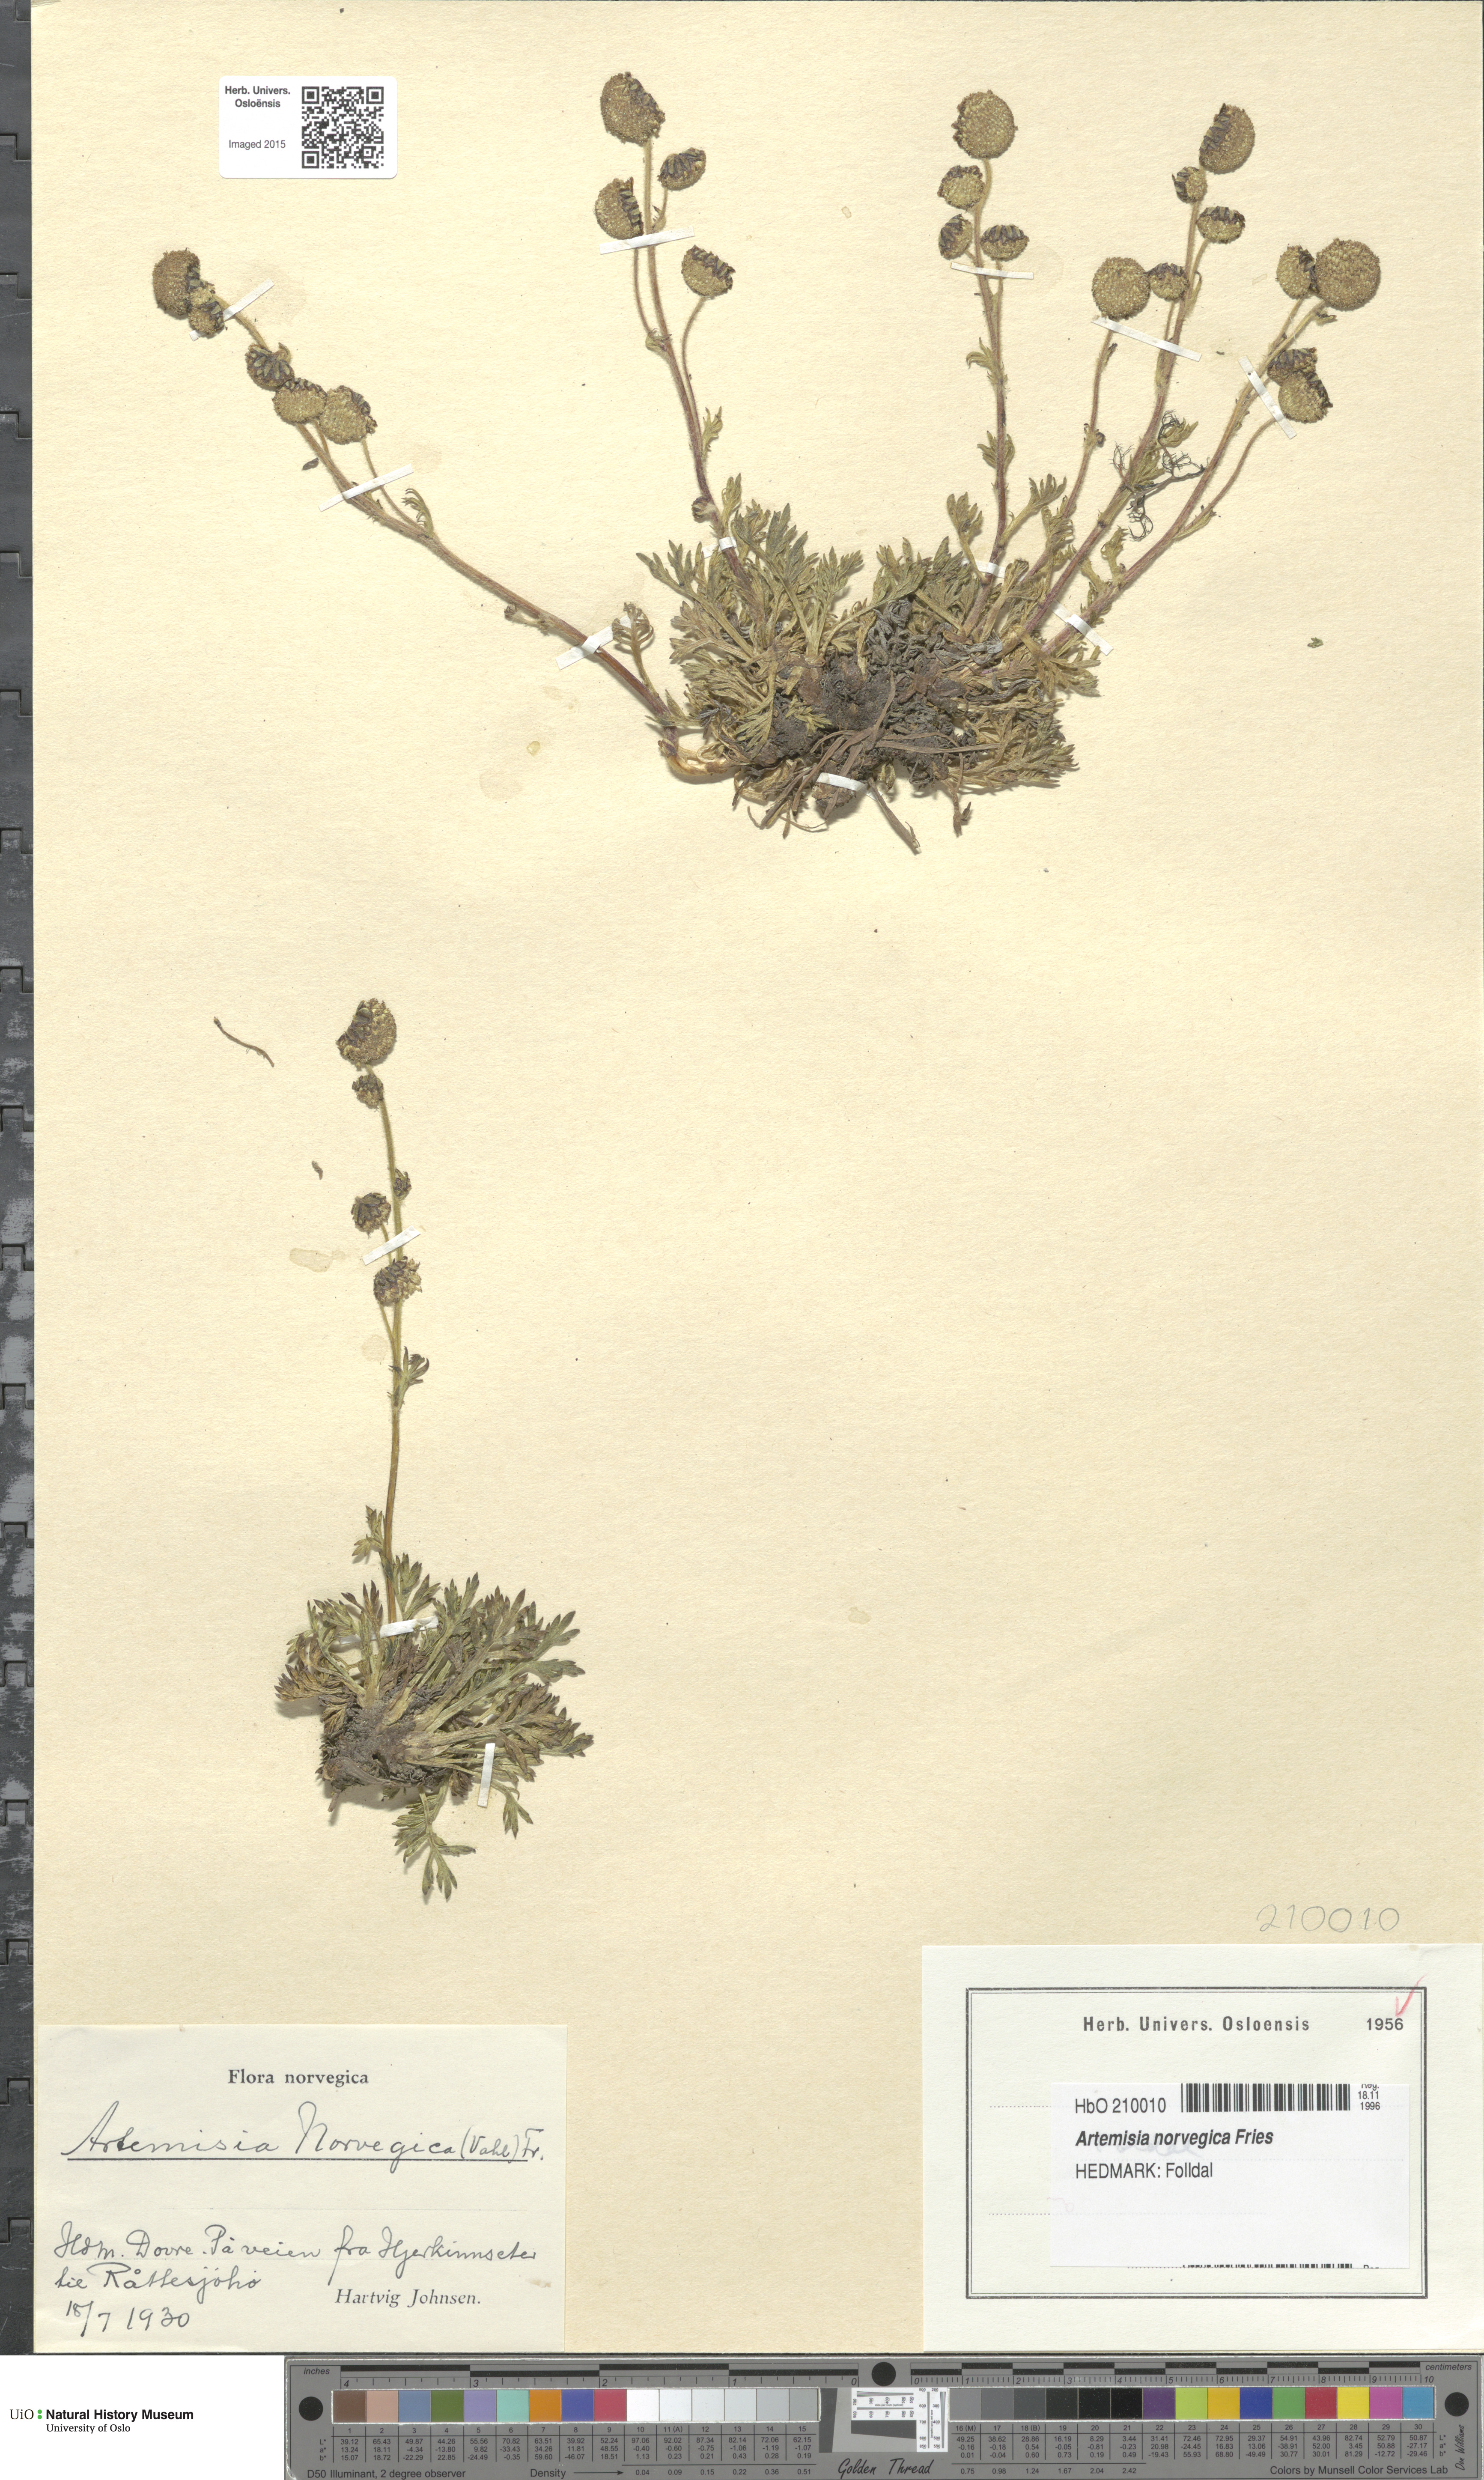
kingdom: Plantae
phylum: Tracheophyta
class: Magnoliopsida
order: Asterales
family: Asteraceae
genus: Artemisia
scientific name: Artemisia norvegica
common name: Norwegian mugwort
